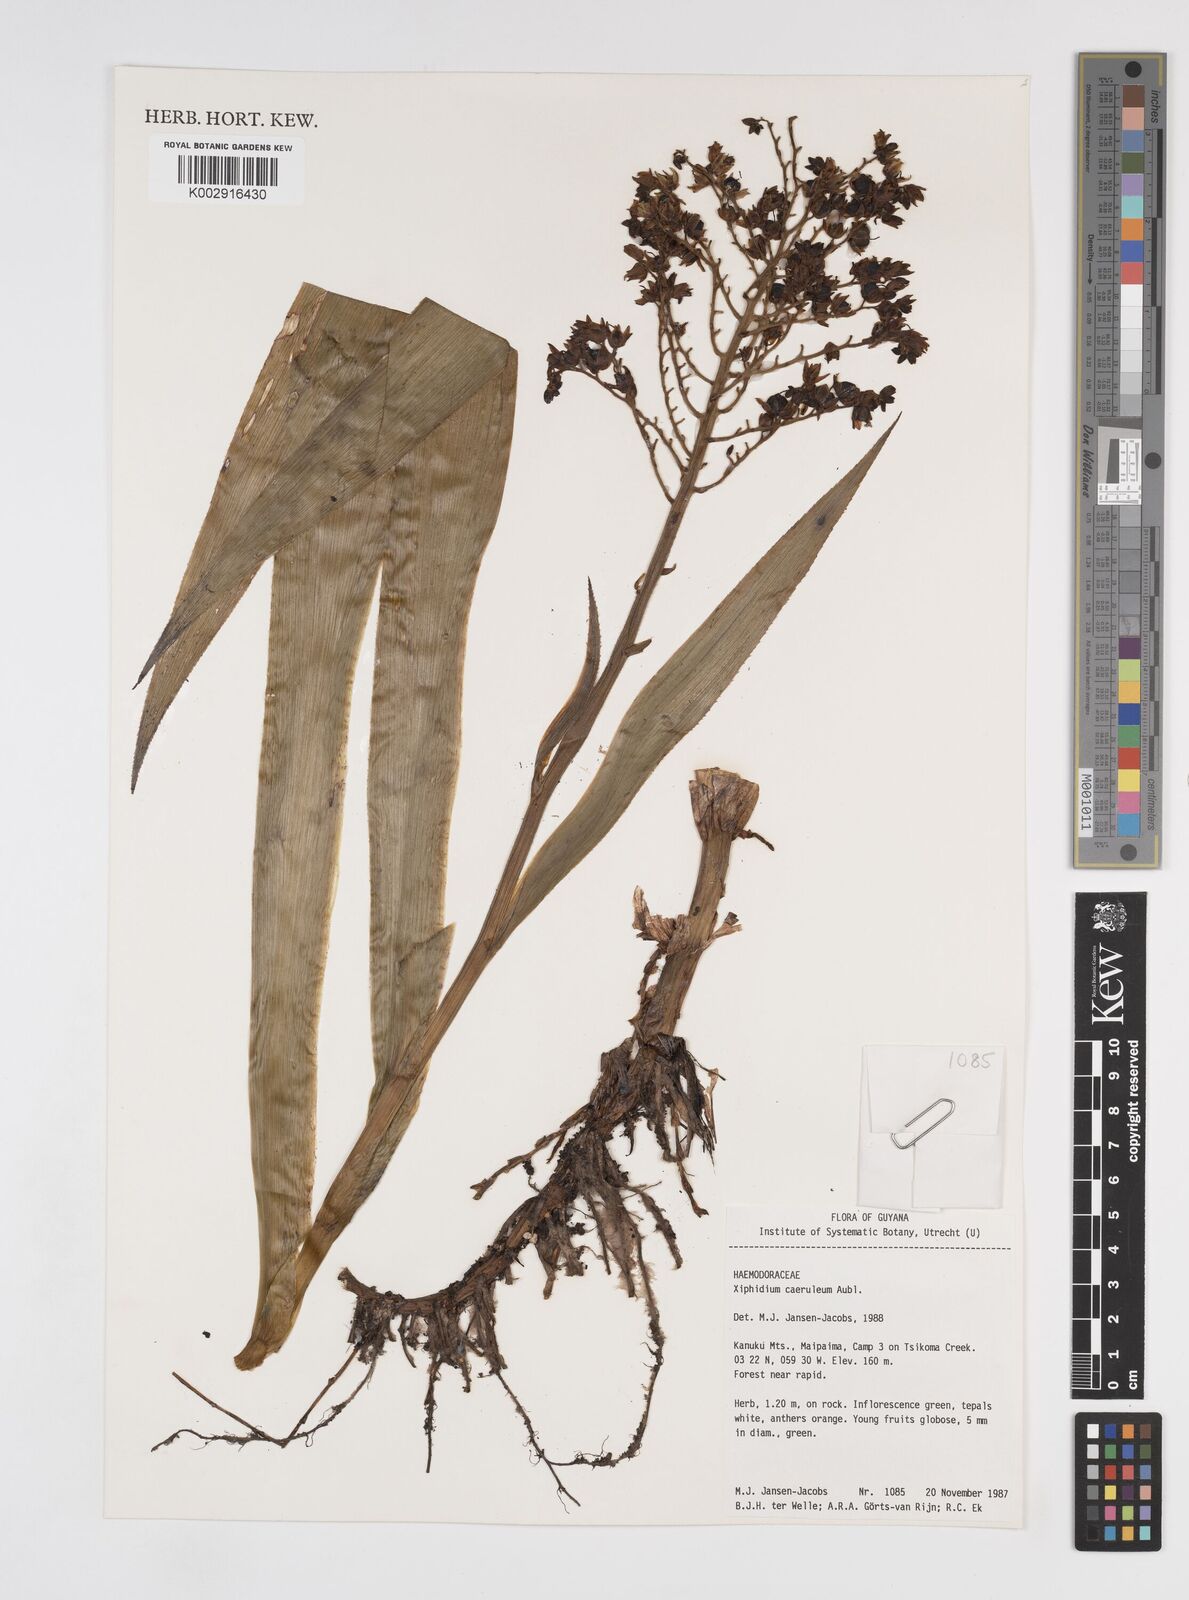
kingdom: Plantae
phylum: Tracheophyta
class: Liliopsida
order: Commelinales
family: Haemodoraceae
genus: Xiphidium
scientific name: Xiphidium caeruleum
